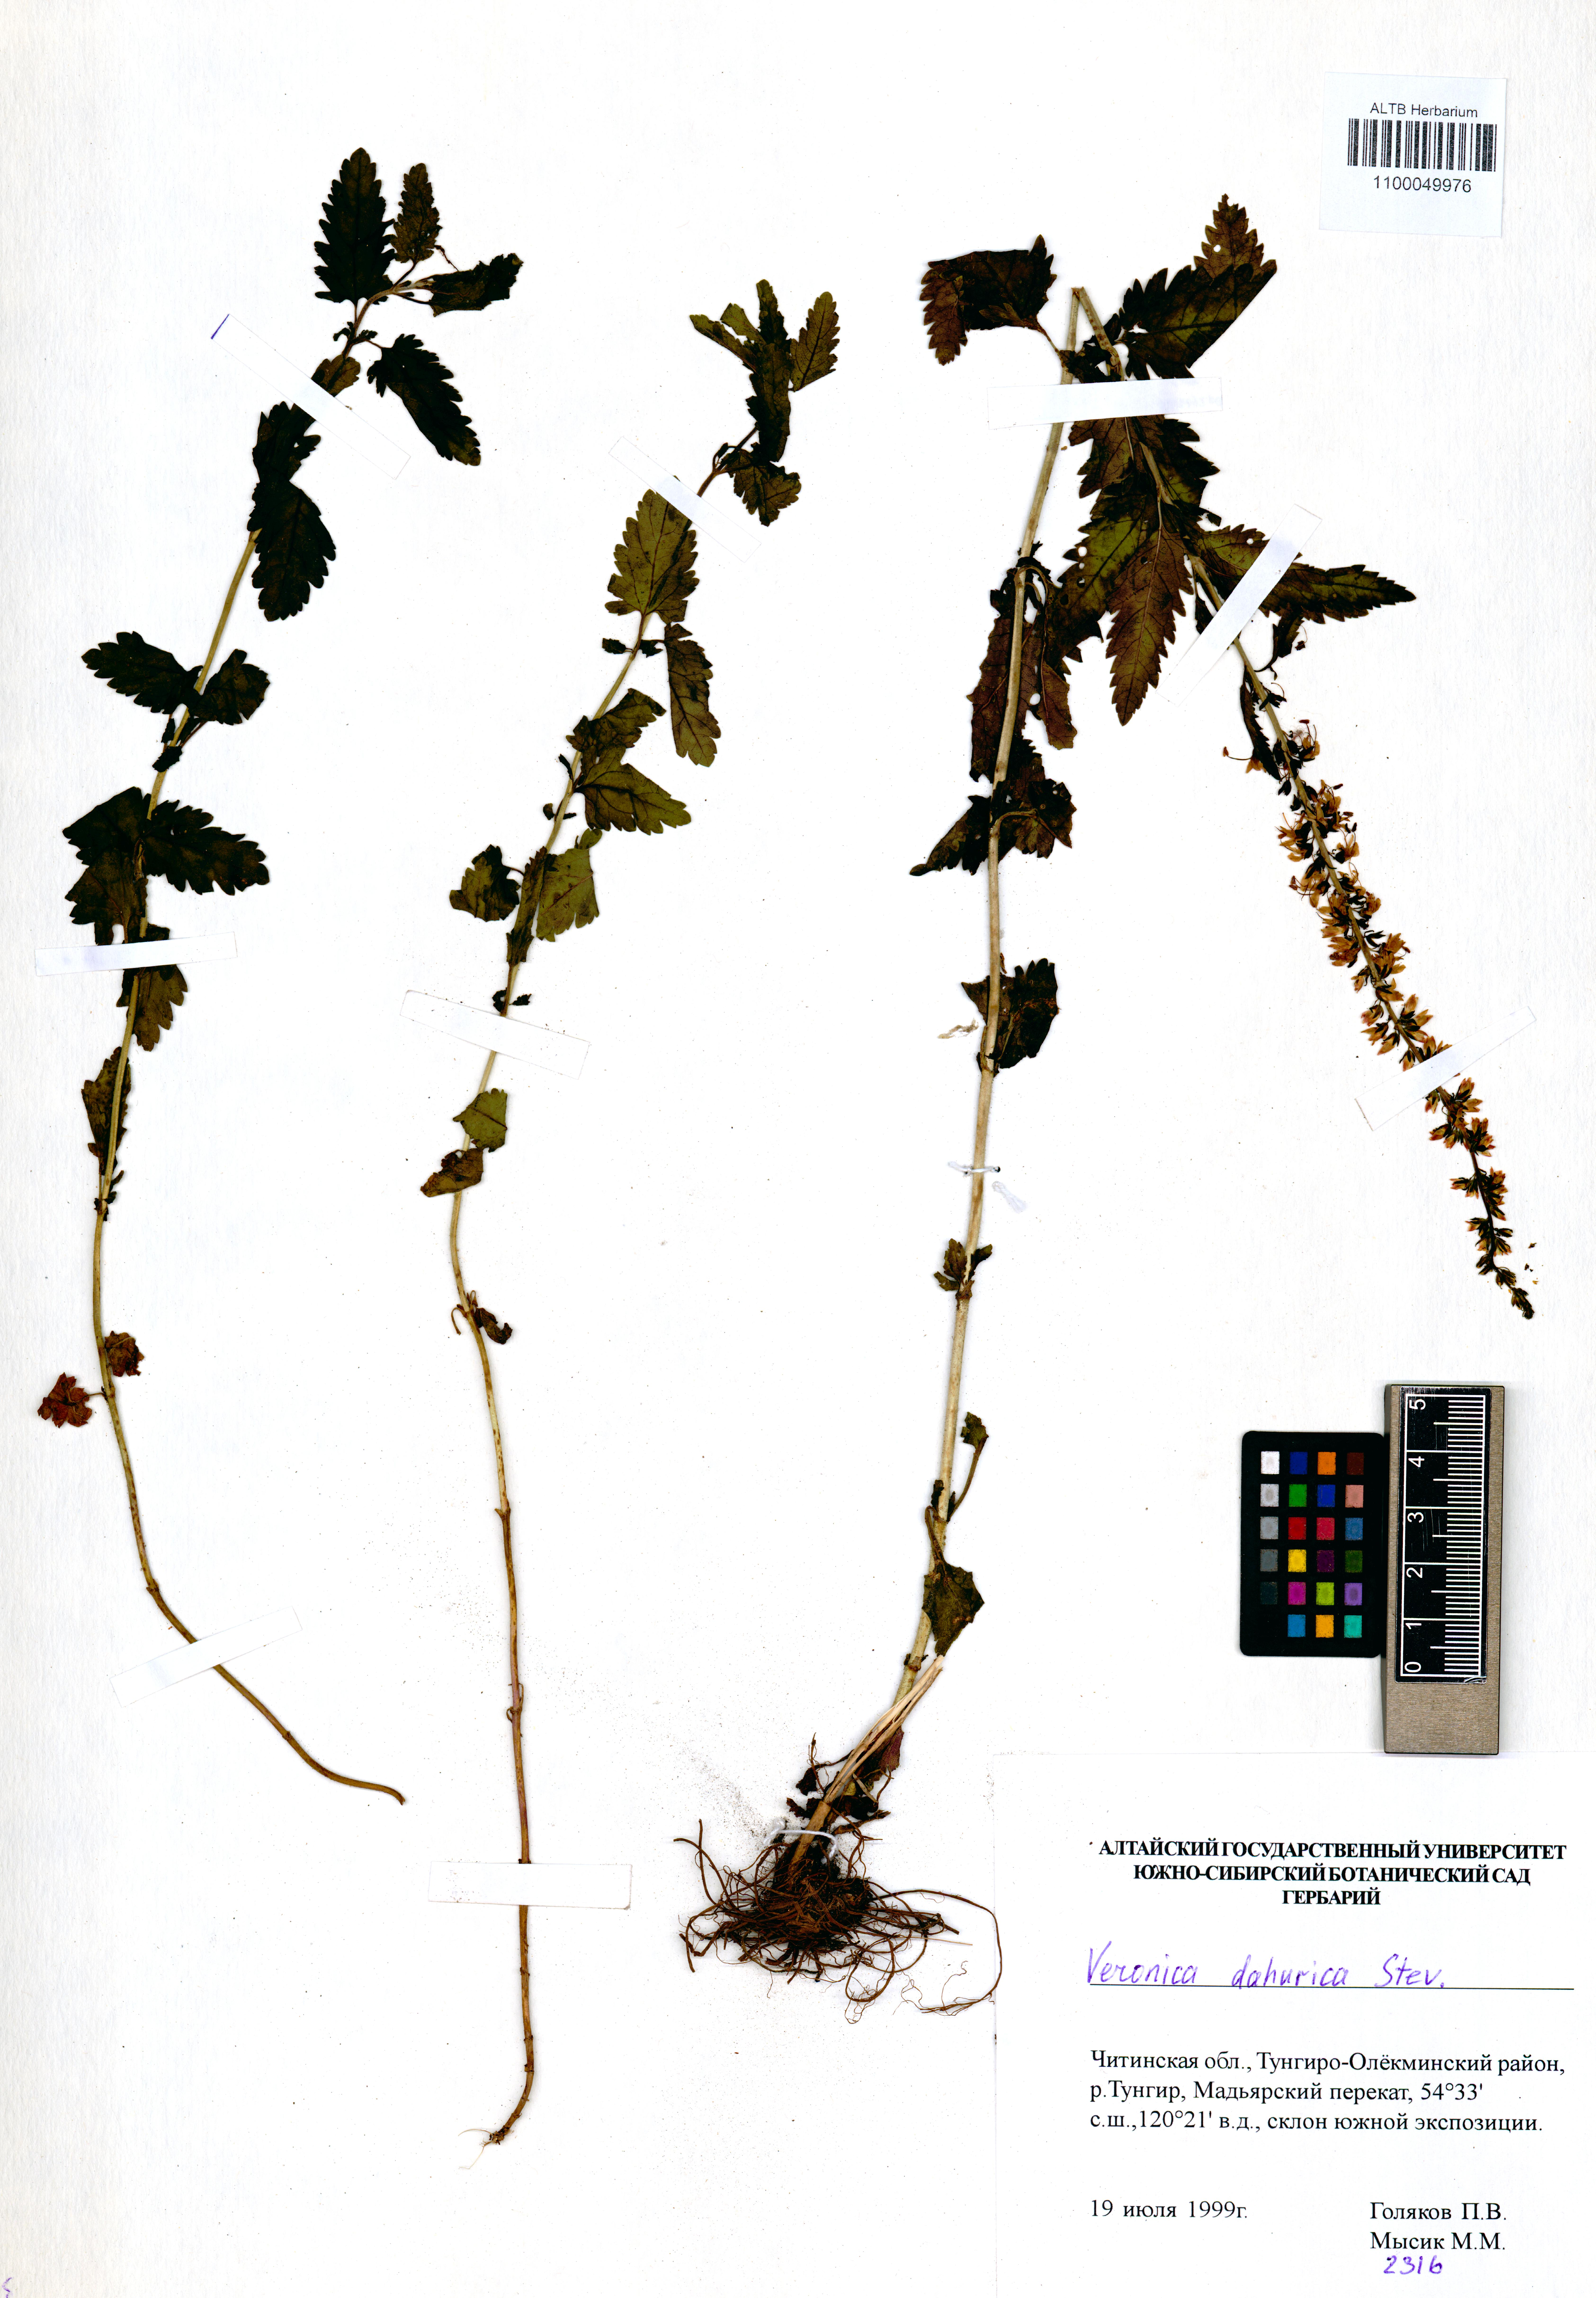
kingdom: Plantae
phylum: Tracheophyta
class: Magnoliopsida
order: Lamiales
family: Plantaginaceae
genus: Veronica
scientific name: Veronica daurica
